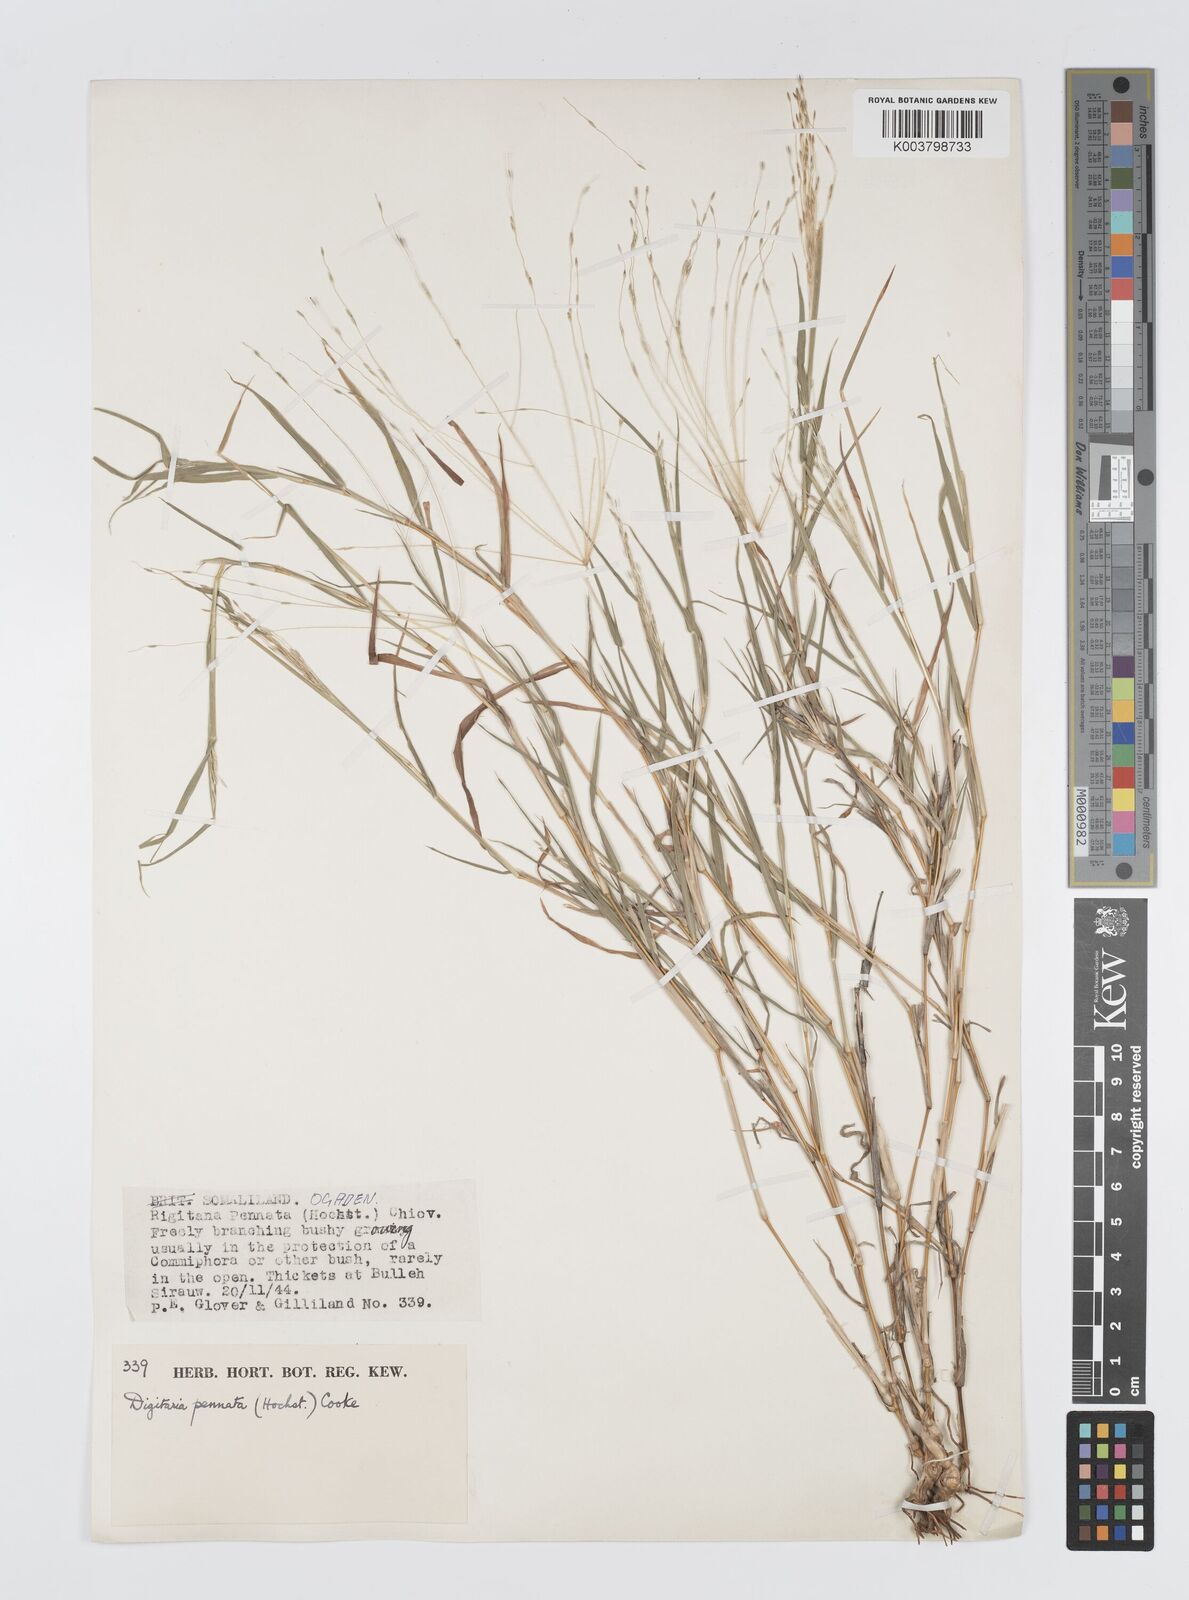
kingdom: Plantae
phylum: Tracheophyta
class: Liliopsida
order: Poales
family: Poaceae
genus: Digitaria
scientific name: Digitaria pennata
